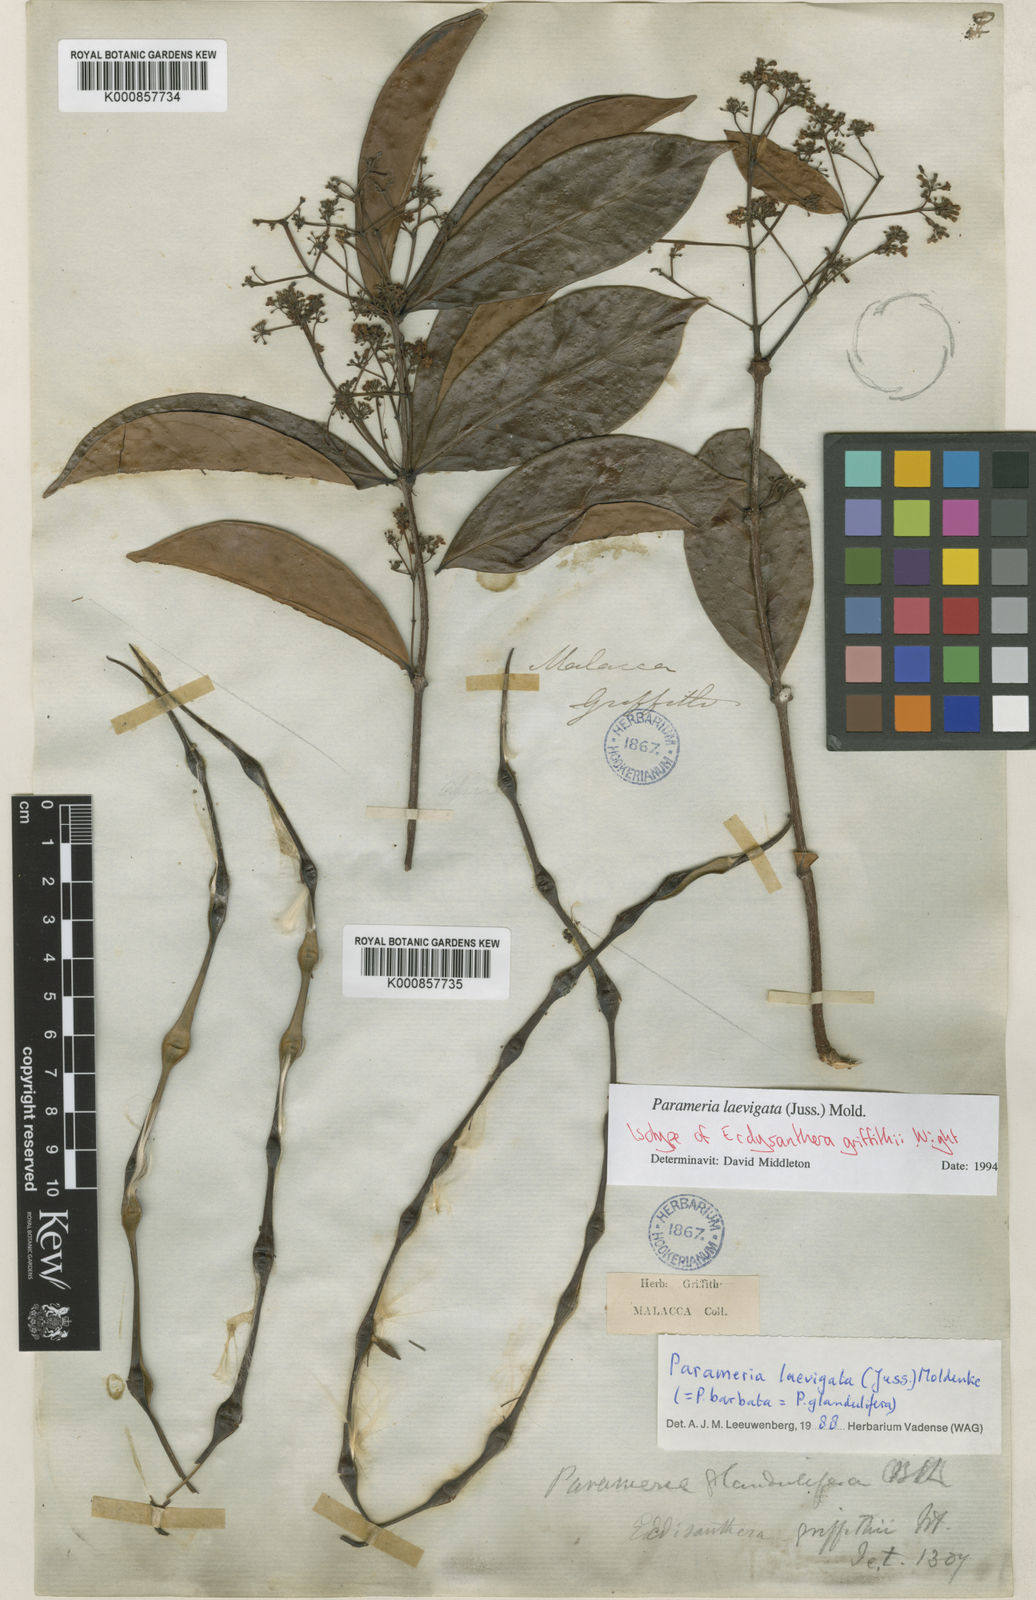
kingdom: Plantae
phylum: Tracheophyta
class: Magnoliopsida
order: Gentianales
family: Apocynaceae
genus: Urceola
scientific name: Urceola laevigata
